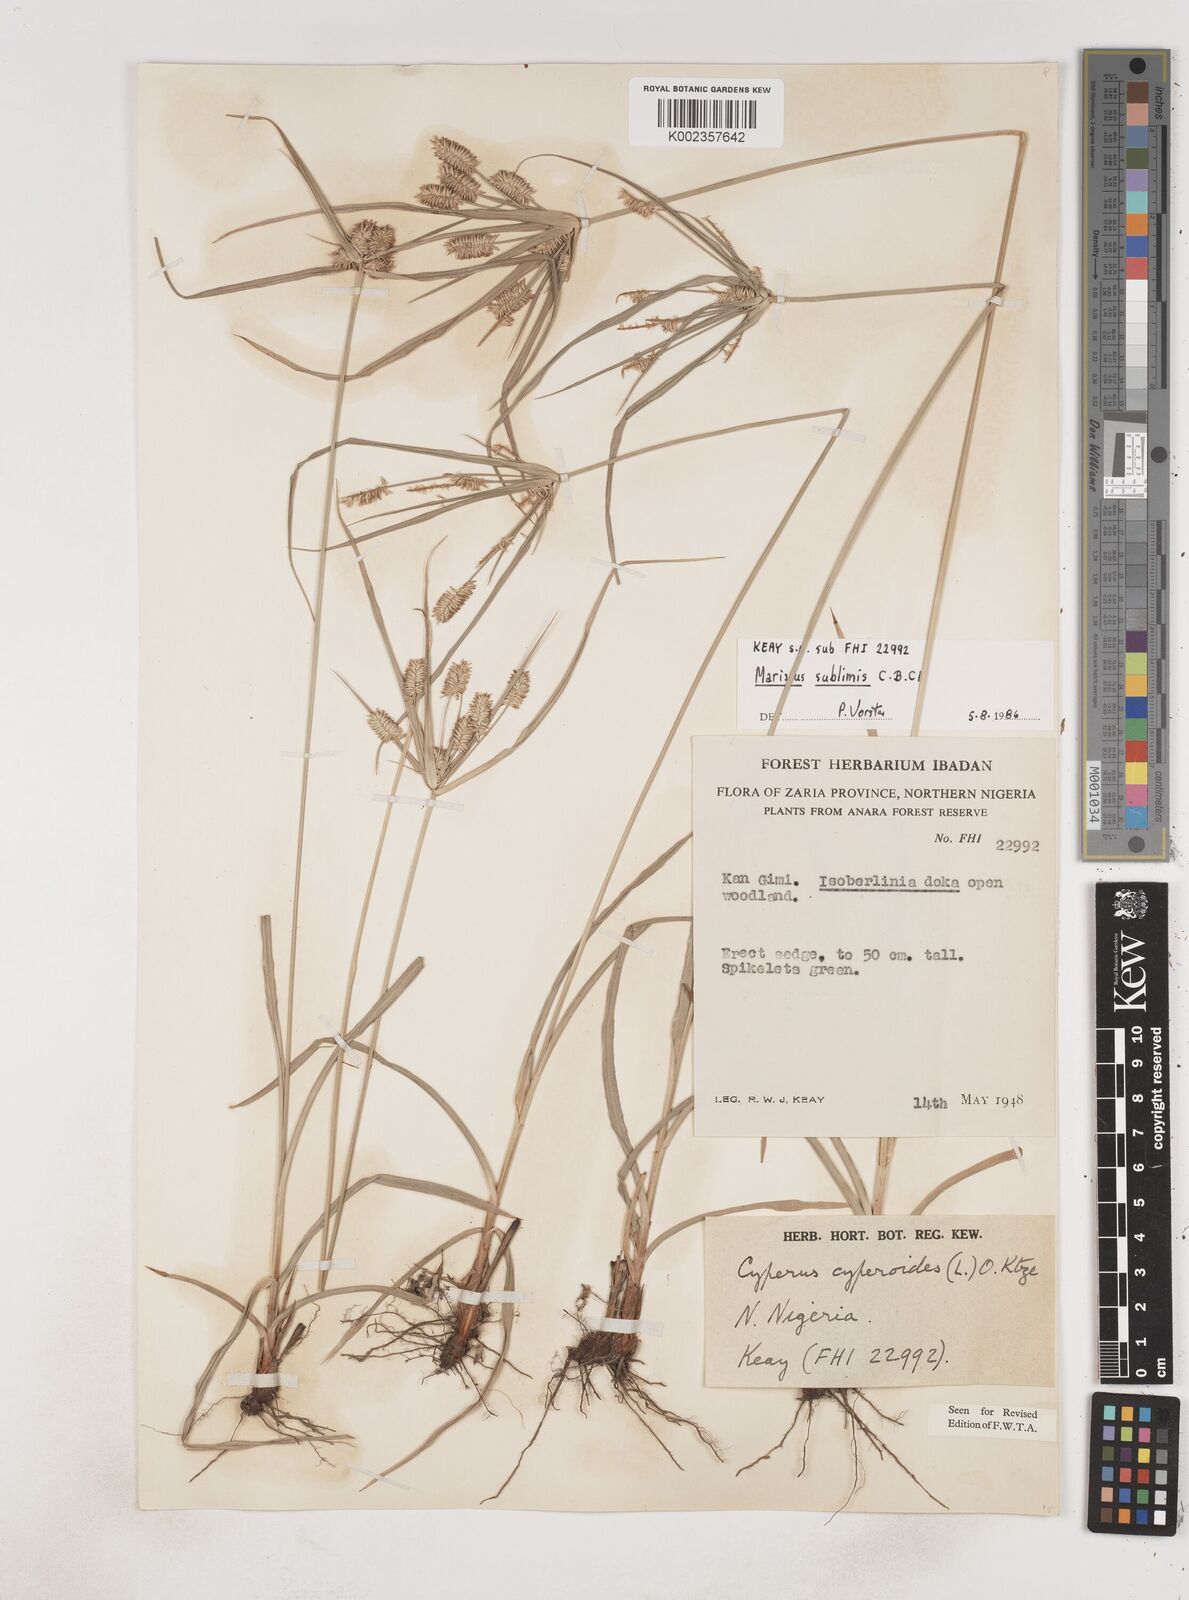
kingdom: Plantae
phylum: Tracheophyta
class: Liliopsida
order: Poales
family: Cyperaceae
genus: Cyperus
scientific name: Cyperus cyperoides
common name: Pacific island flat sedge
